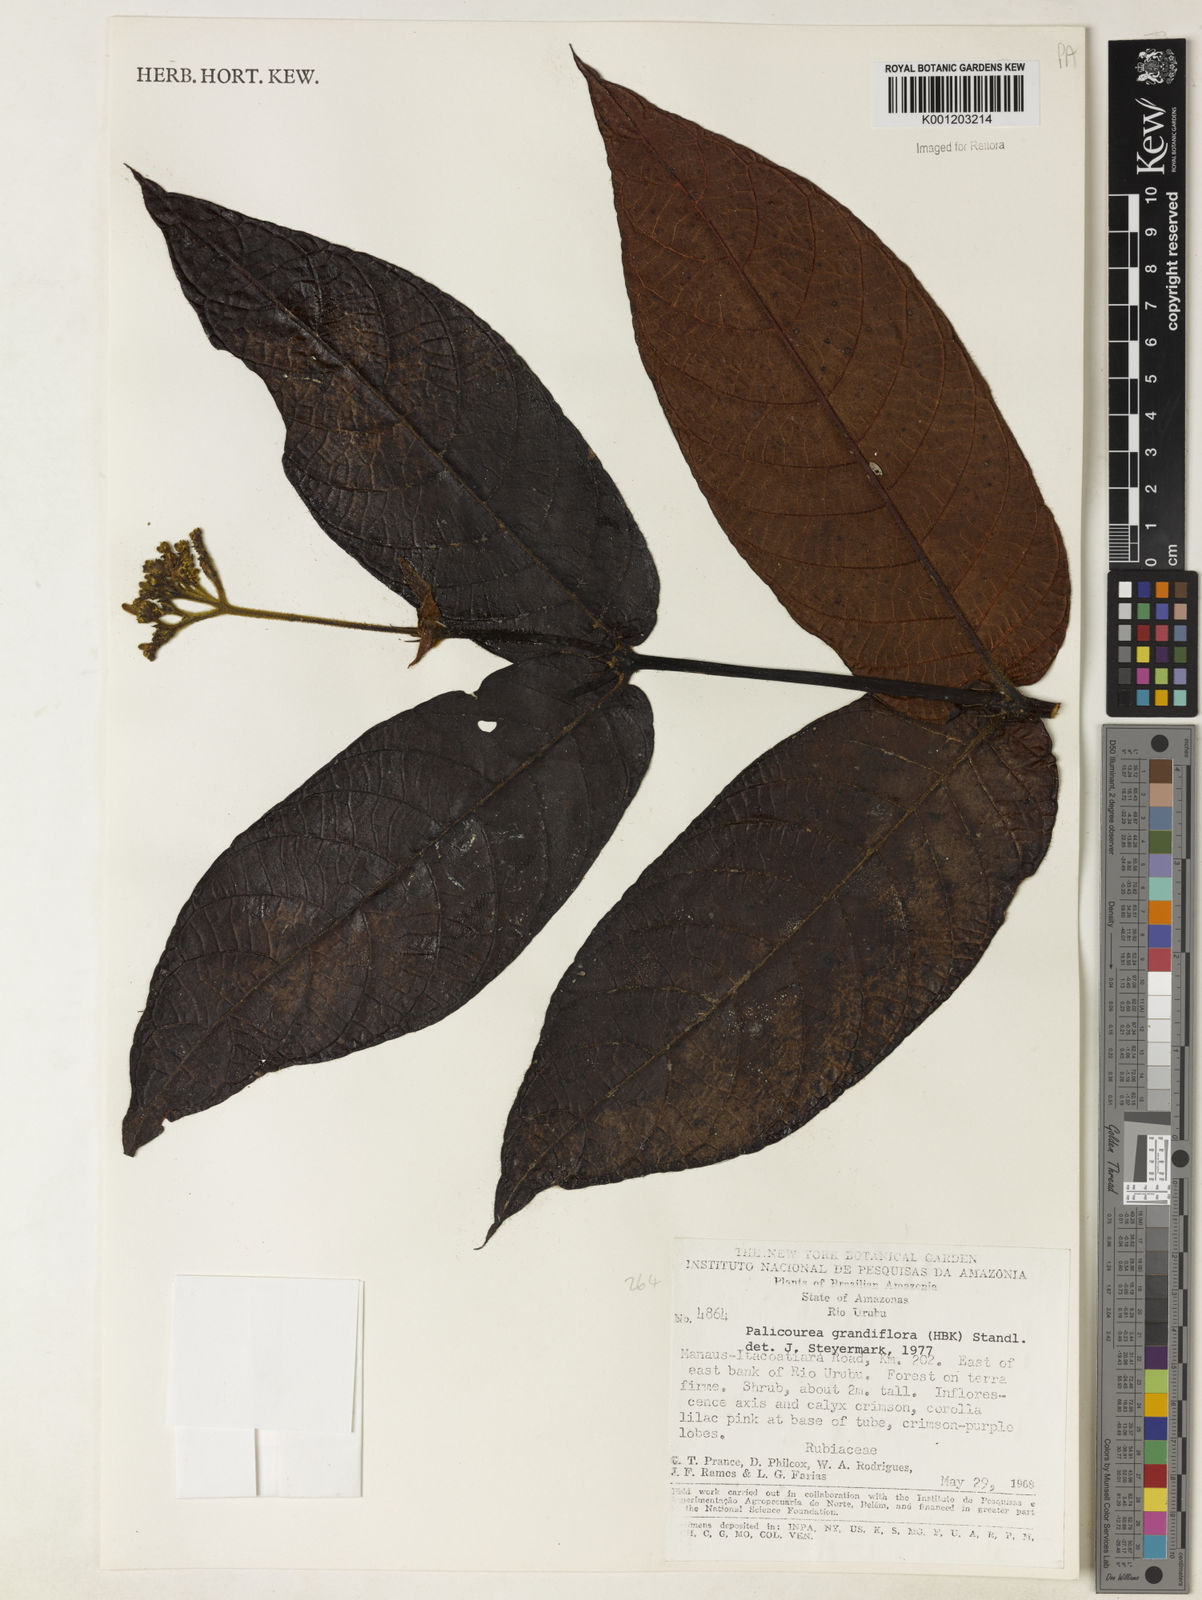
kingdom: Plantae
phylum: Tracheophyta
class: Magnoliopsida
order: Gentianales
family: Rubiaceae
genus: Palicourea
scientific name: Palicourea
